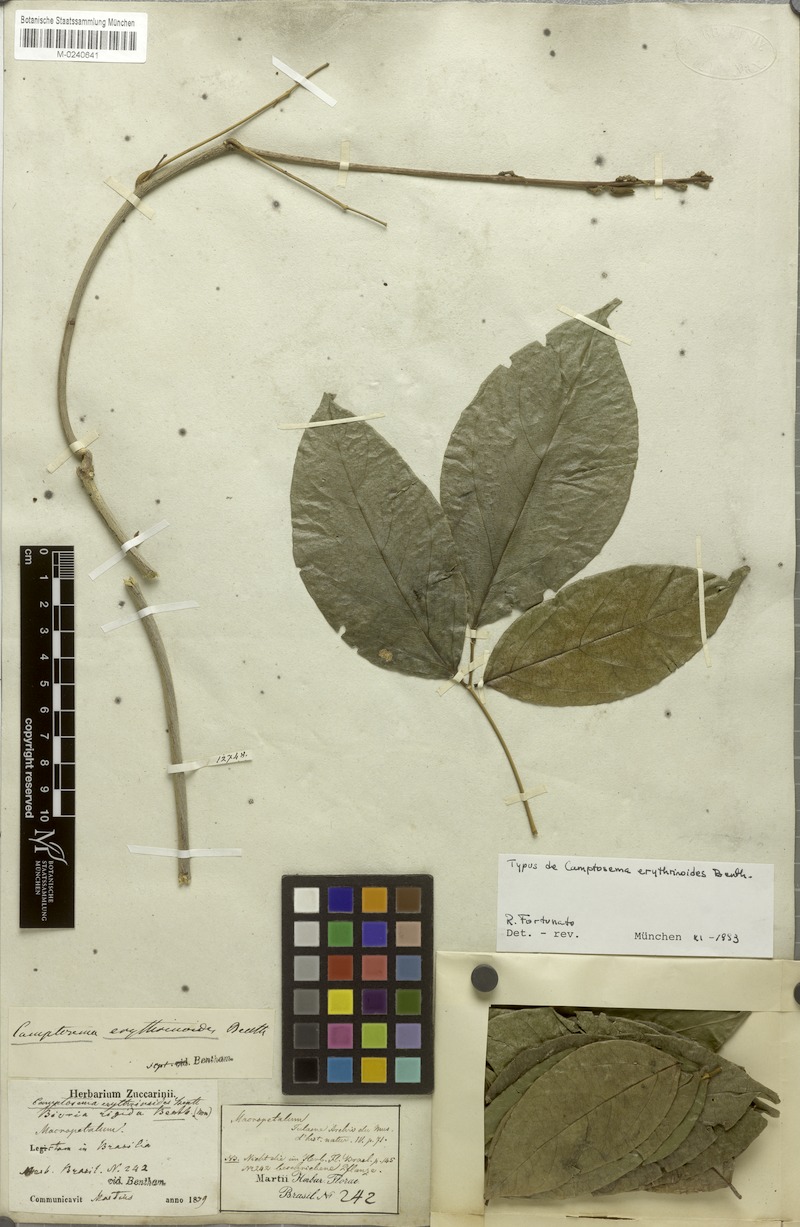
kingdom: Plantae
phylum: Tracheophyta
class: Magnoliopsida
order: Fabales
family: Fabaceae
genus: Cratylia
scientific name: Cratylia isopetala
